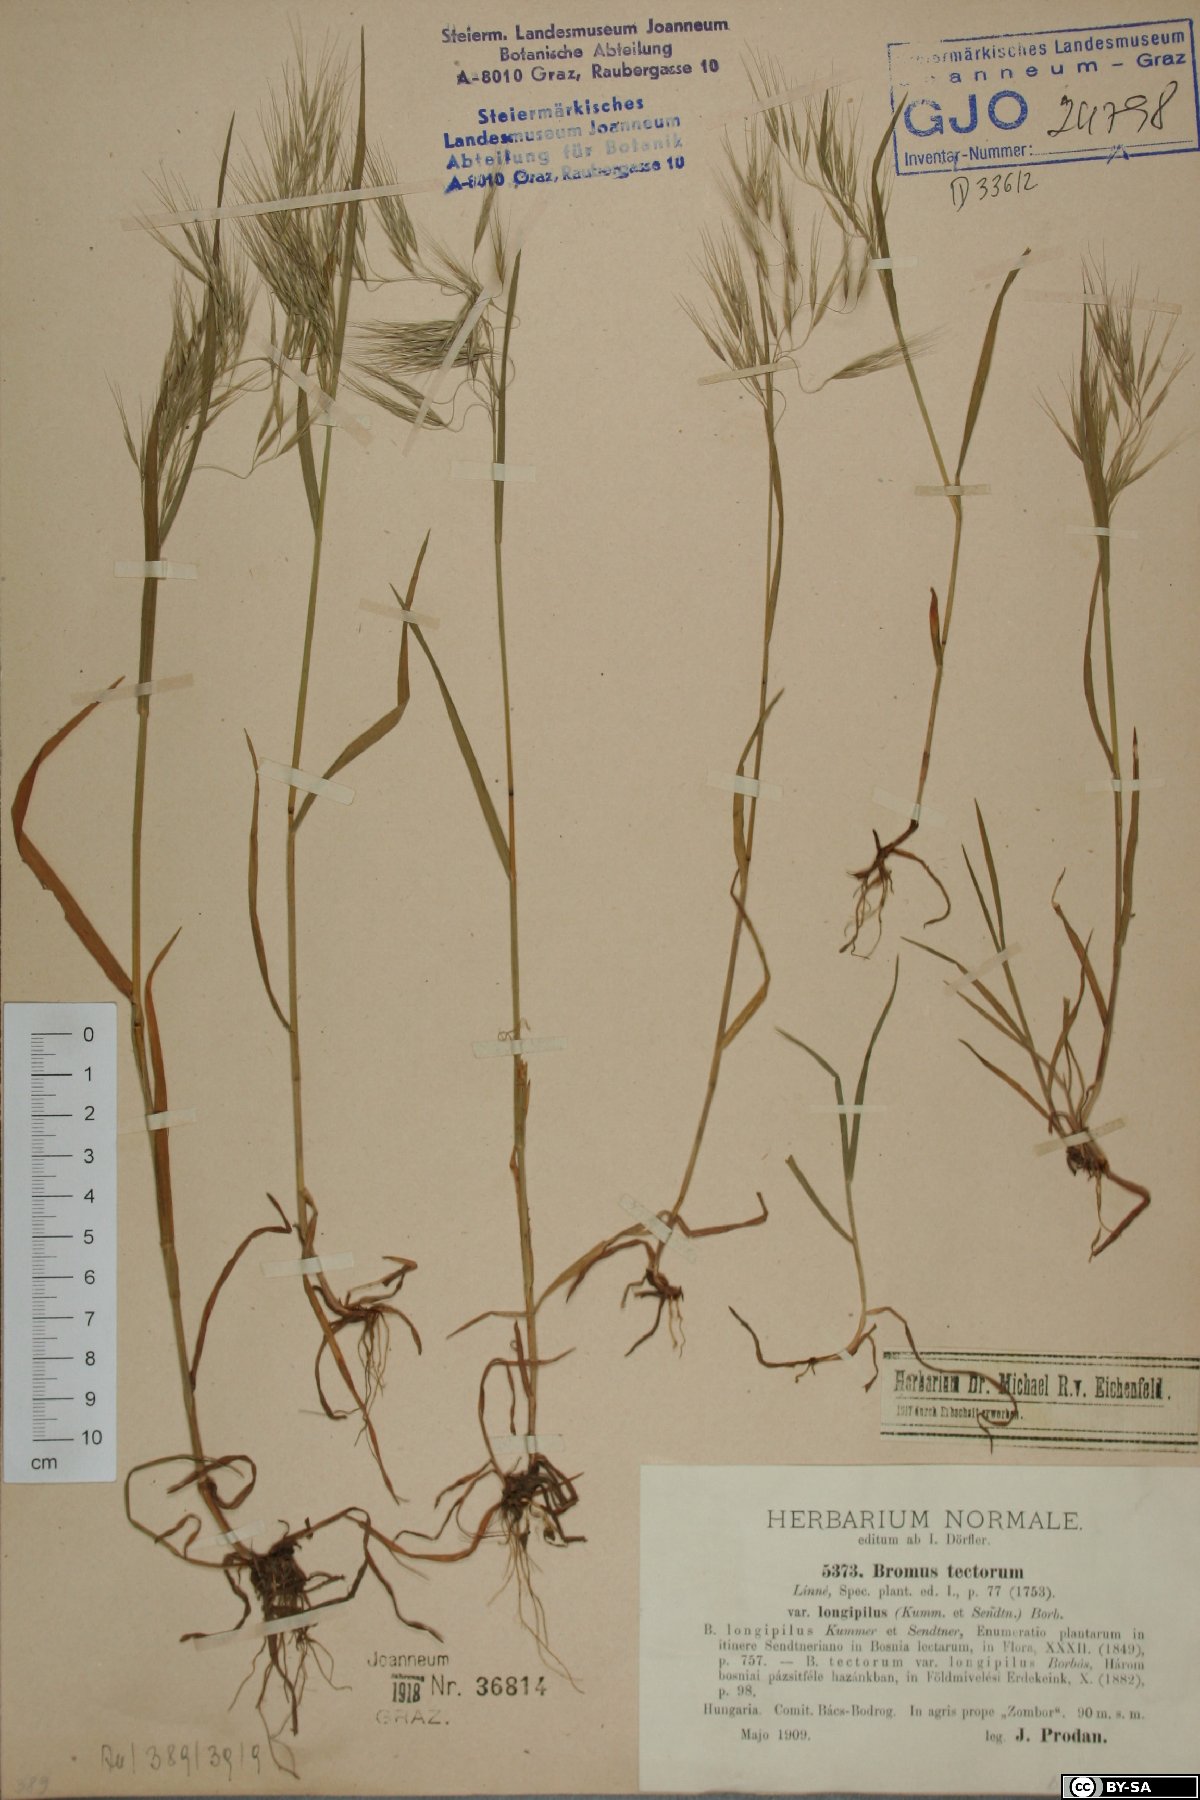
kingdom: Plantae
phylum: Tracheophyta
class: Liliopsida
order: Poales
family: Poaceae
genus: Bromus
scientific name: Bromus tectorum
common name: Cheatgrass
